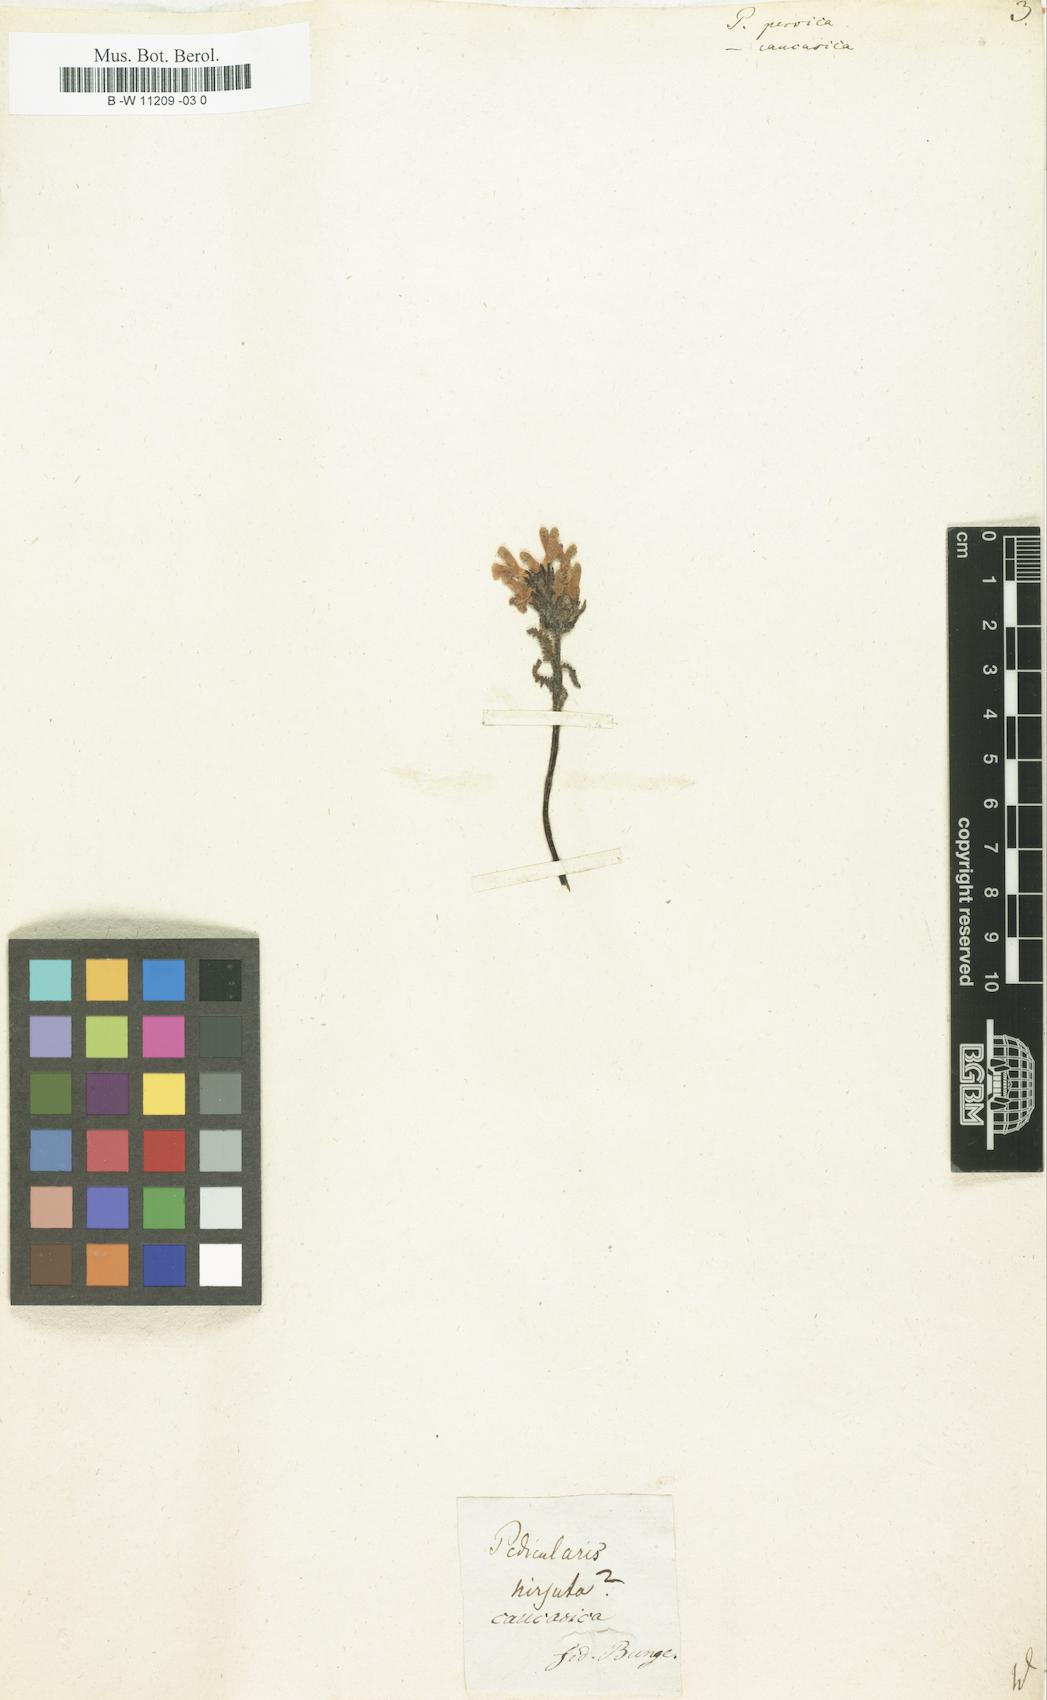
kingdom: Plantae
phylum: Tracheophyta
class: Magnoliopsida
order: Lamiales
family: Orobanchaceae
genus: Pedicularis
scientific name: Pedicularis caucasica
